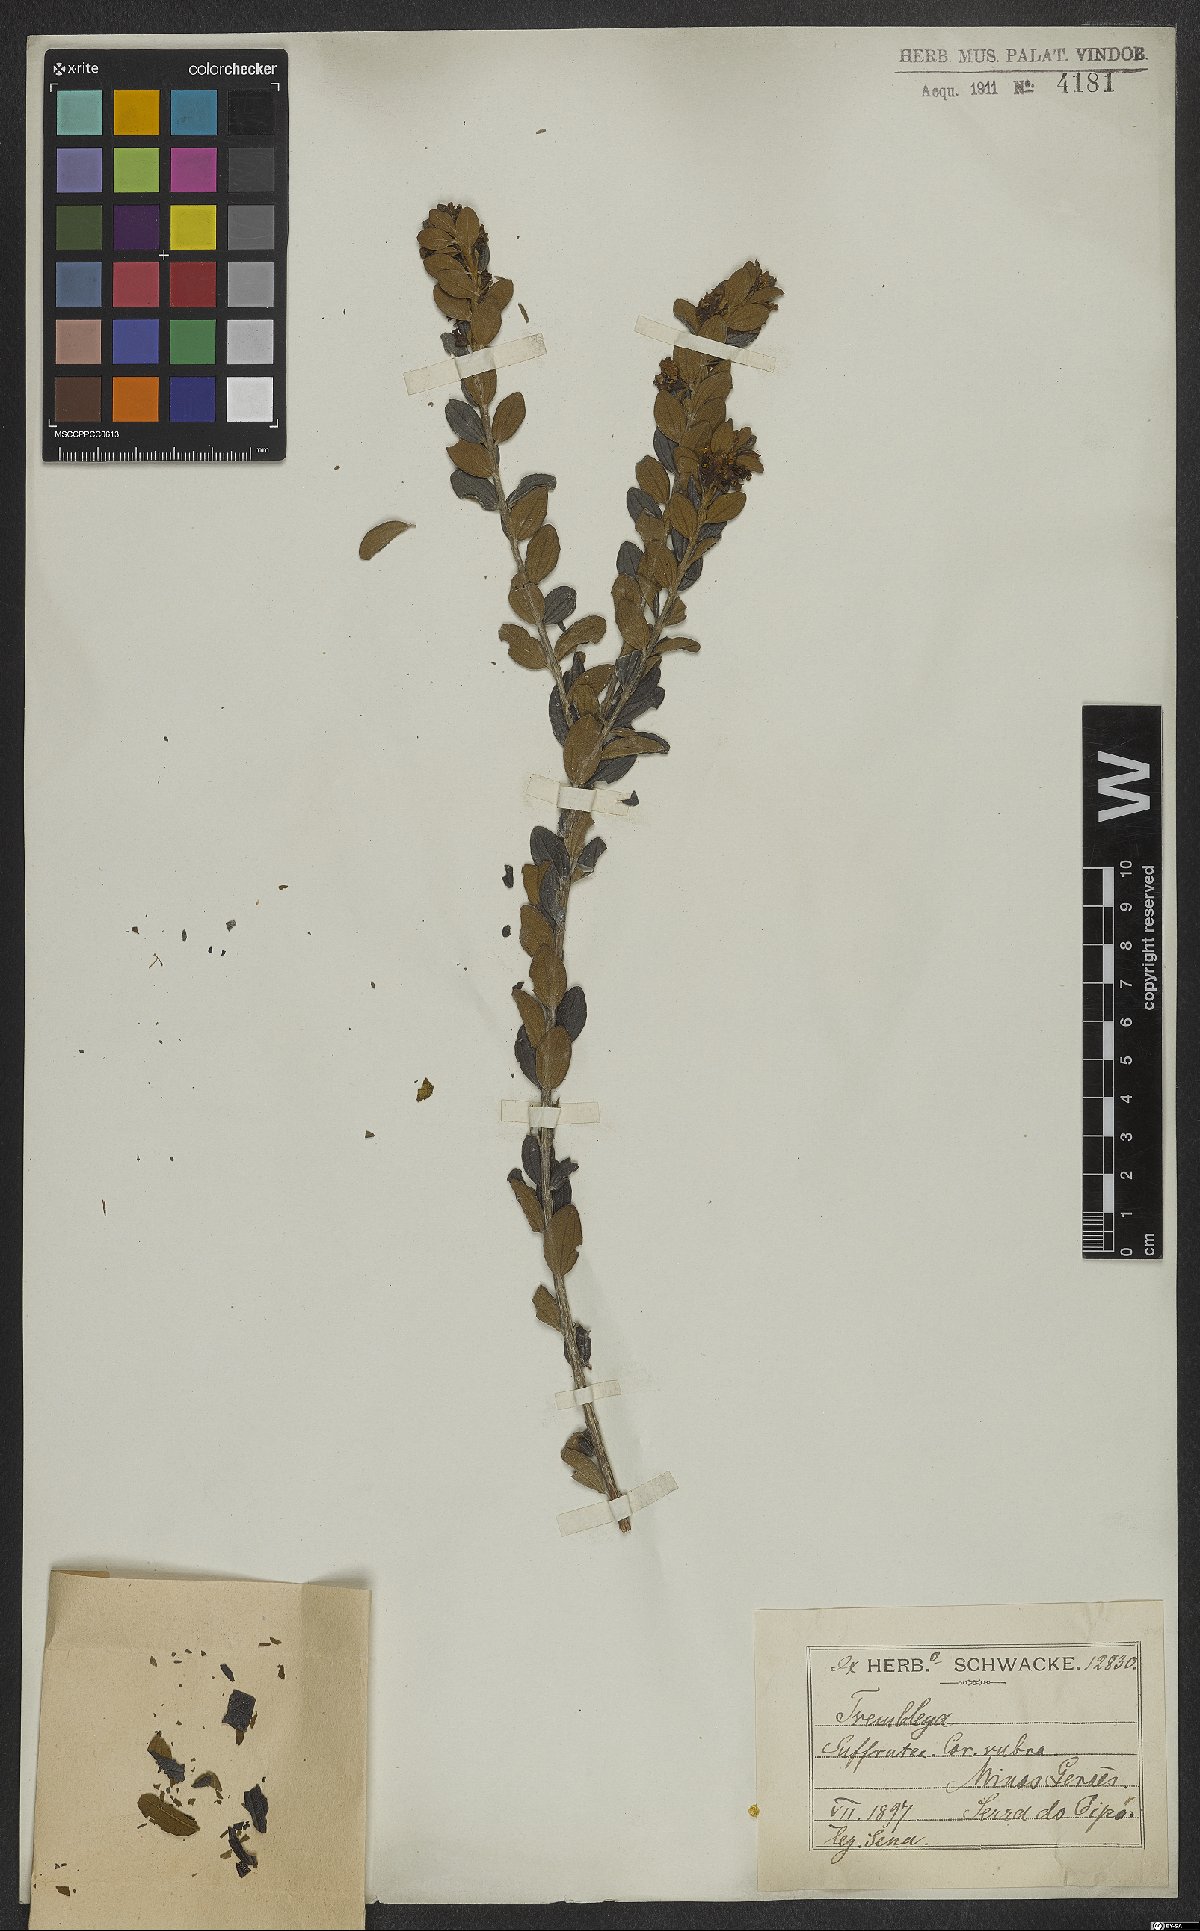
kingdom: Plantae
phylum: Tracheophyta
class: Magnoliopsida
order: Myrtales
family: Melastomataceae
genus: Microlicia
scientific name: Microlicia
